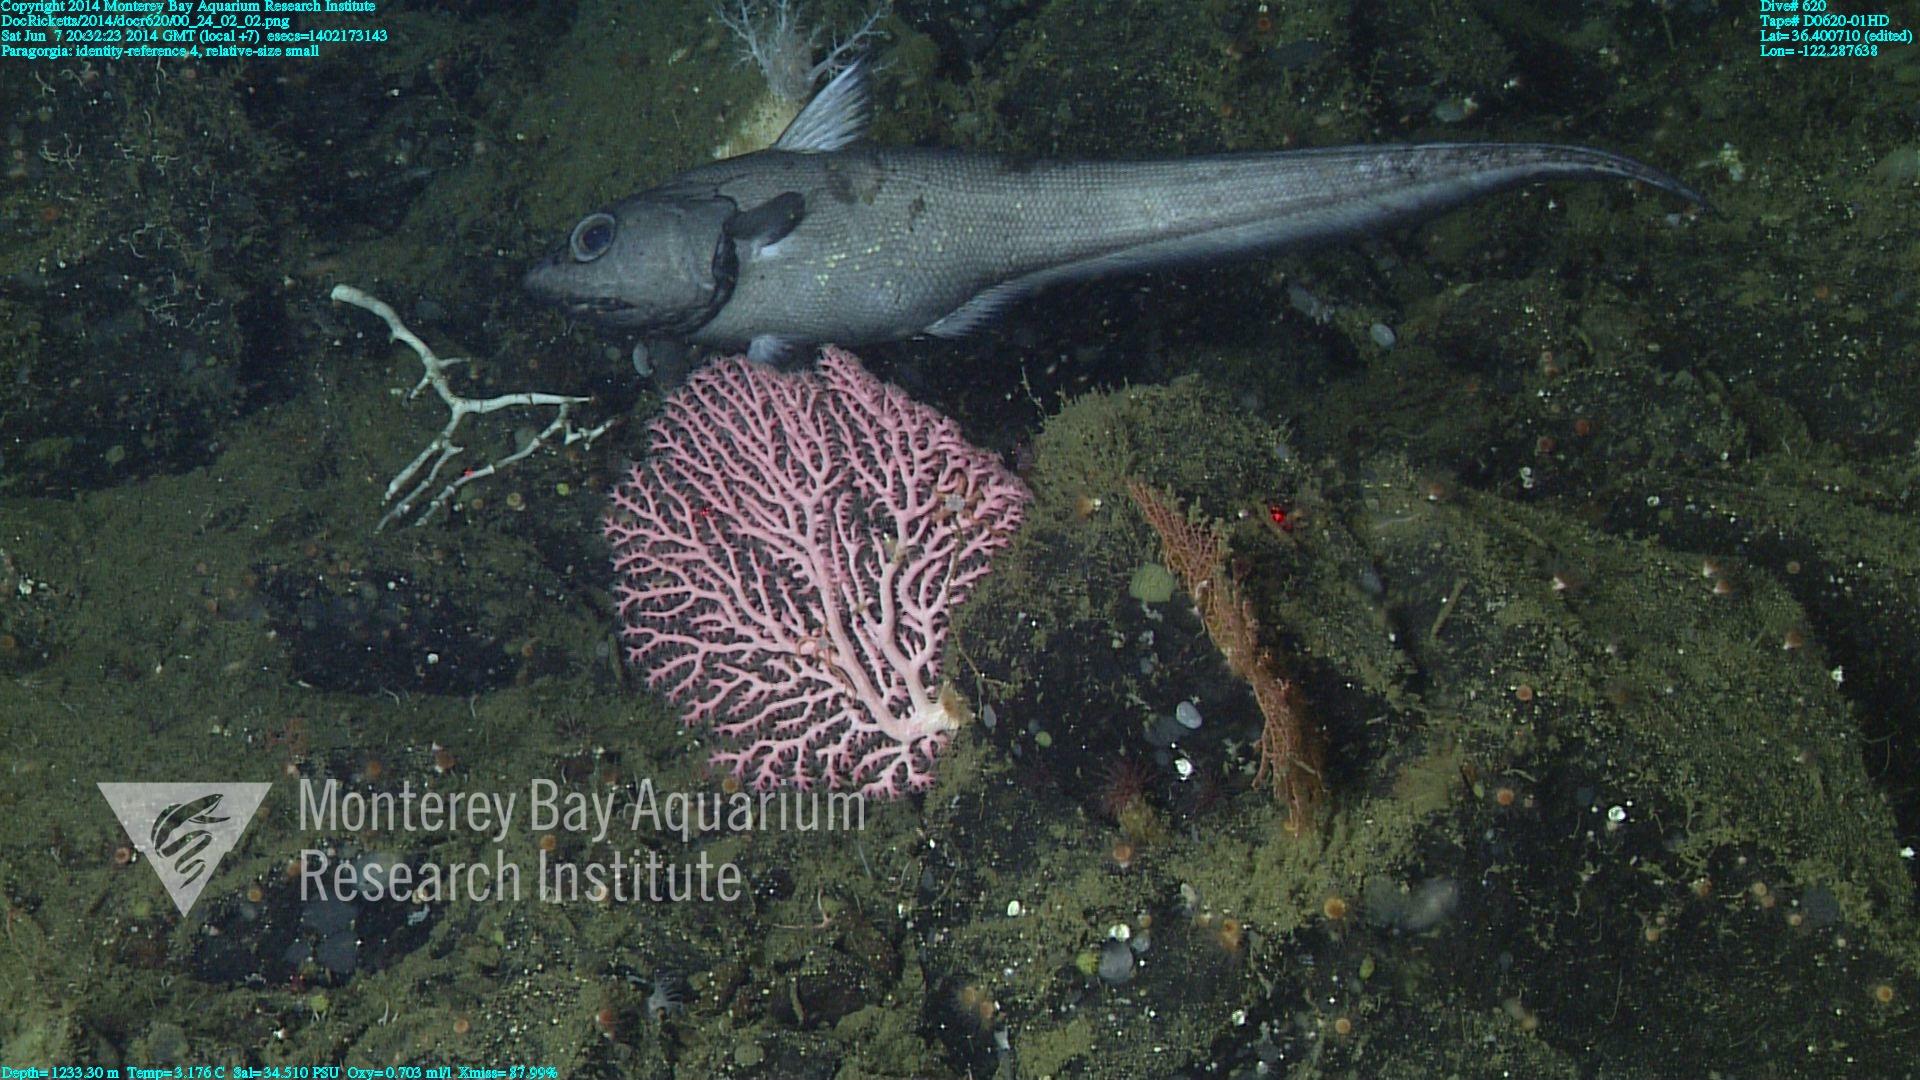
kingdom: Animalia
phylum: Cnidaria
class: Anthozoa
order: Scleralcyonacea
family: Coralliidae
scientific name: Coralliidae
